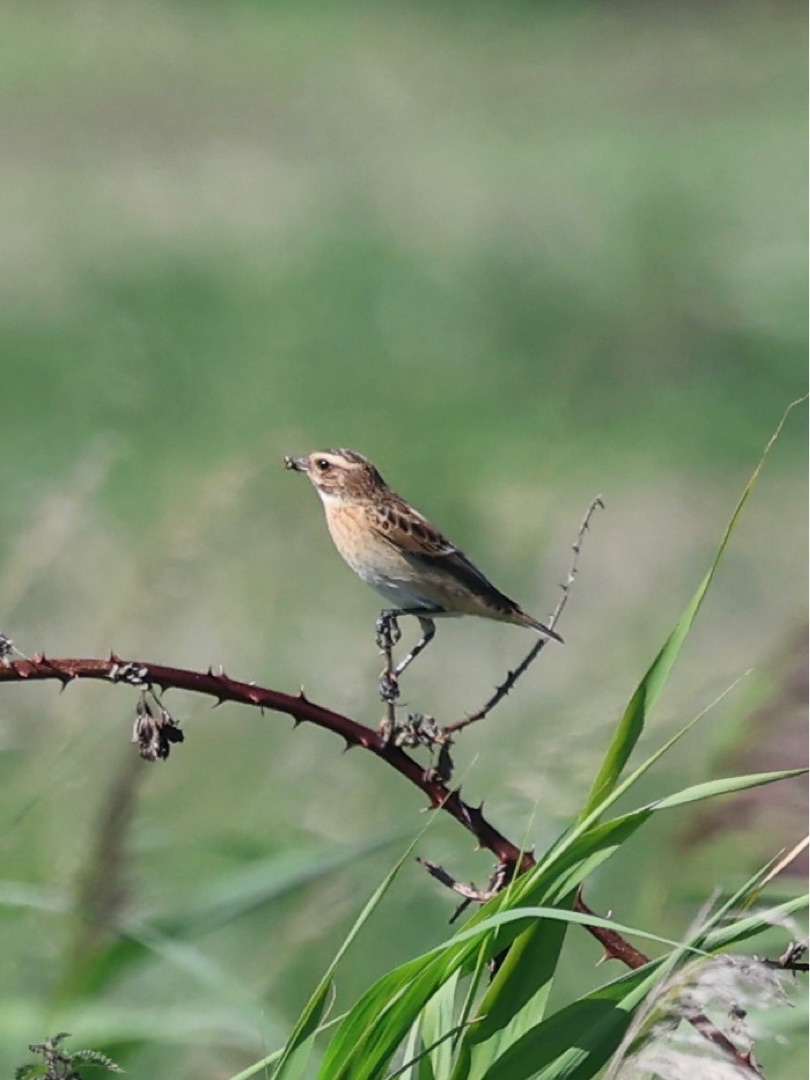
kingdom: Animalia
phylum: Chordata
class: Aves
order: Passeriformes
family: Muscicapidae
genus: Saxicola
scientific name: Saxicola rubetra
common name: Bynkefugl
